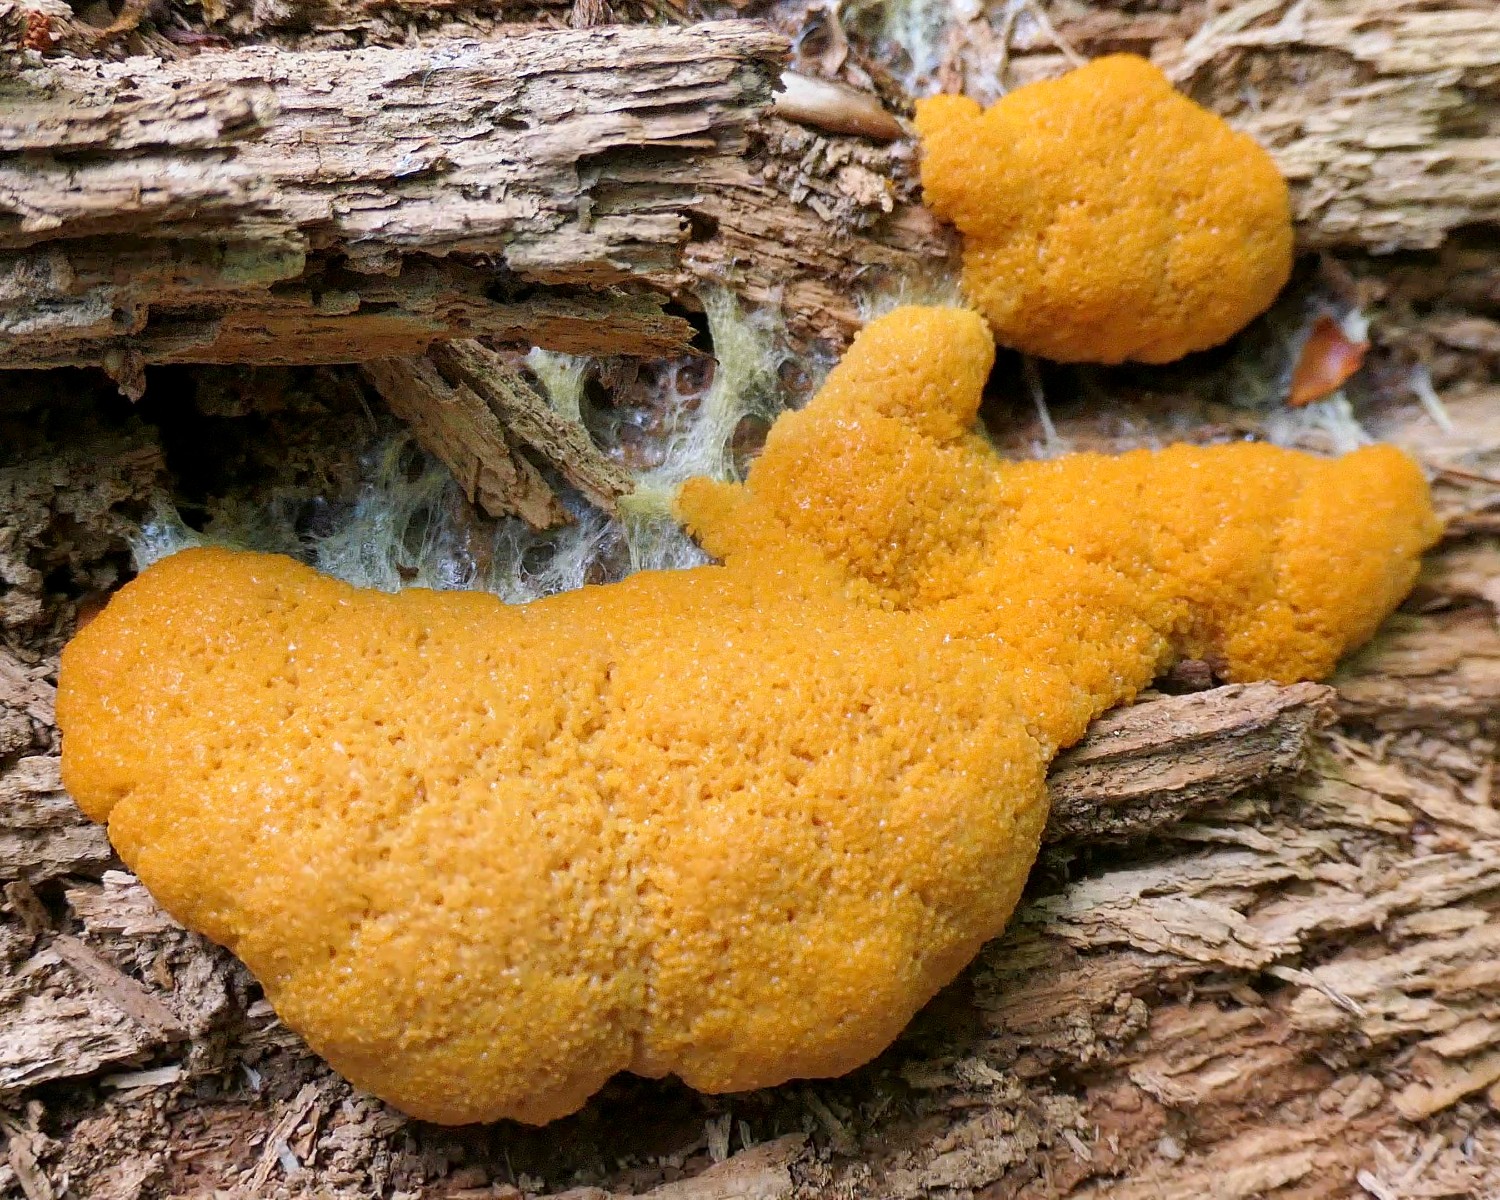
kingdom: Protozoa
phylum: Mycetozoa
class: Myxomycetes
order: Cribrariales
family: Tubiferaceae
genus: Tubifera
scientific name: Tubifera ferruginosa
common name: kanel-støvrør
